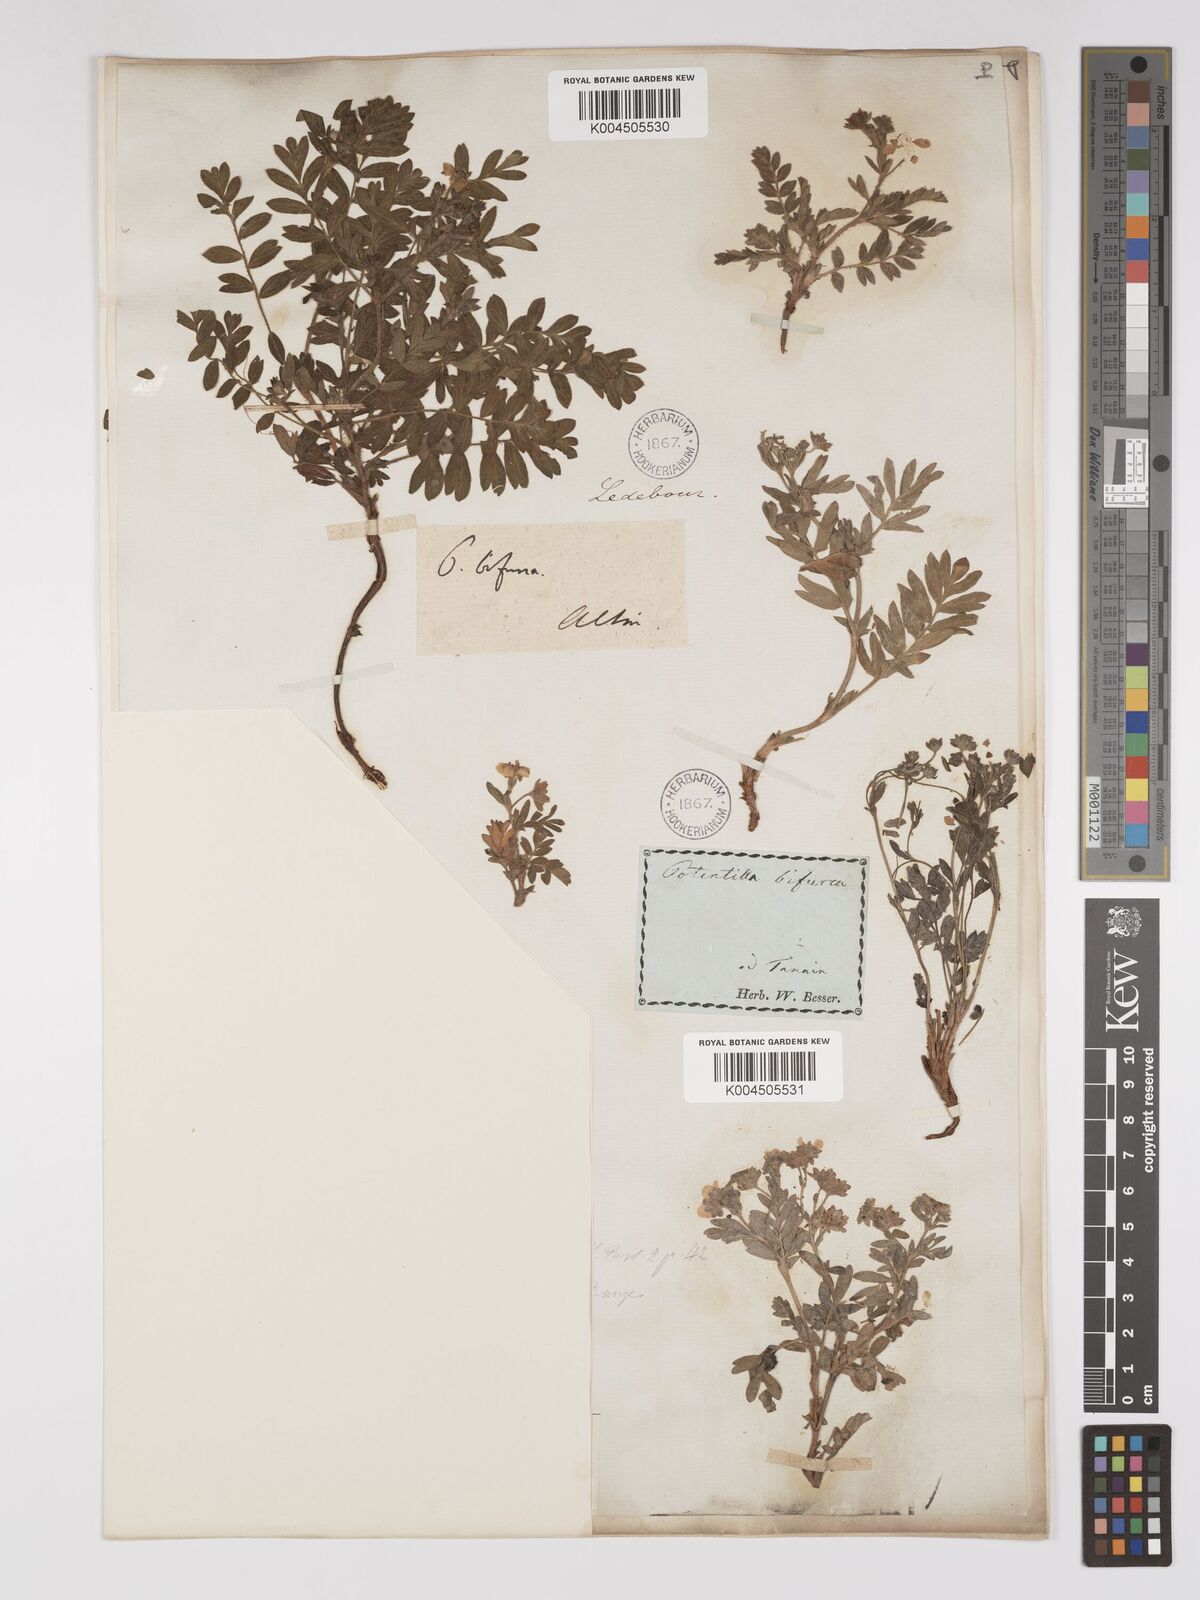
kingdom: Plantae
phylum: Tracheophyta
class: Magnoliopsida
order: Rosales
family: Rosaceae
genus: Sibbaldianthe
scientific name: Sibbaldianthe bifurca
